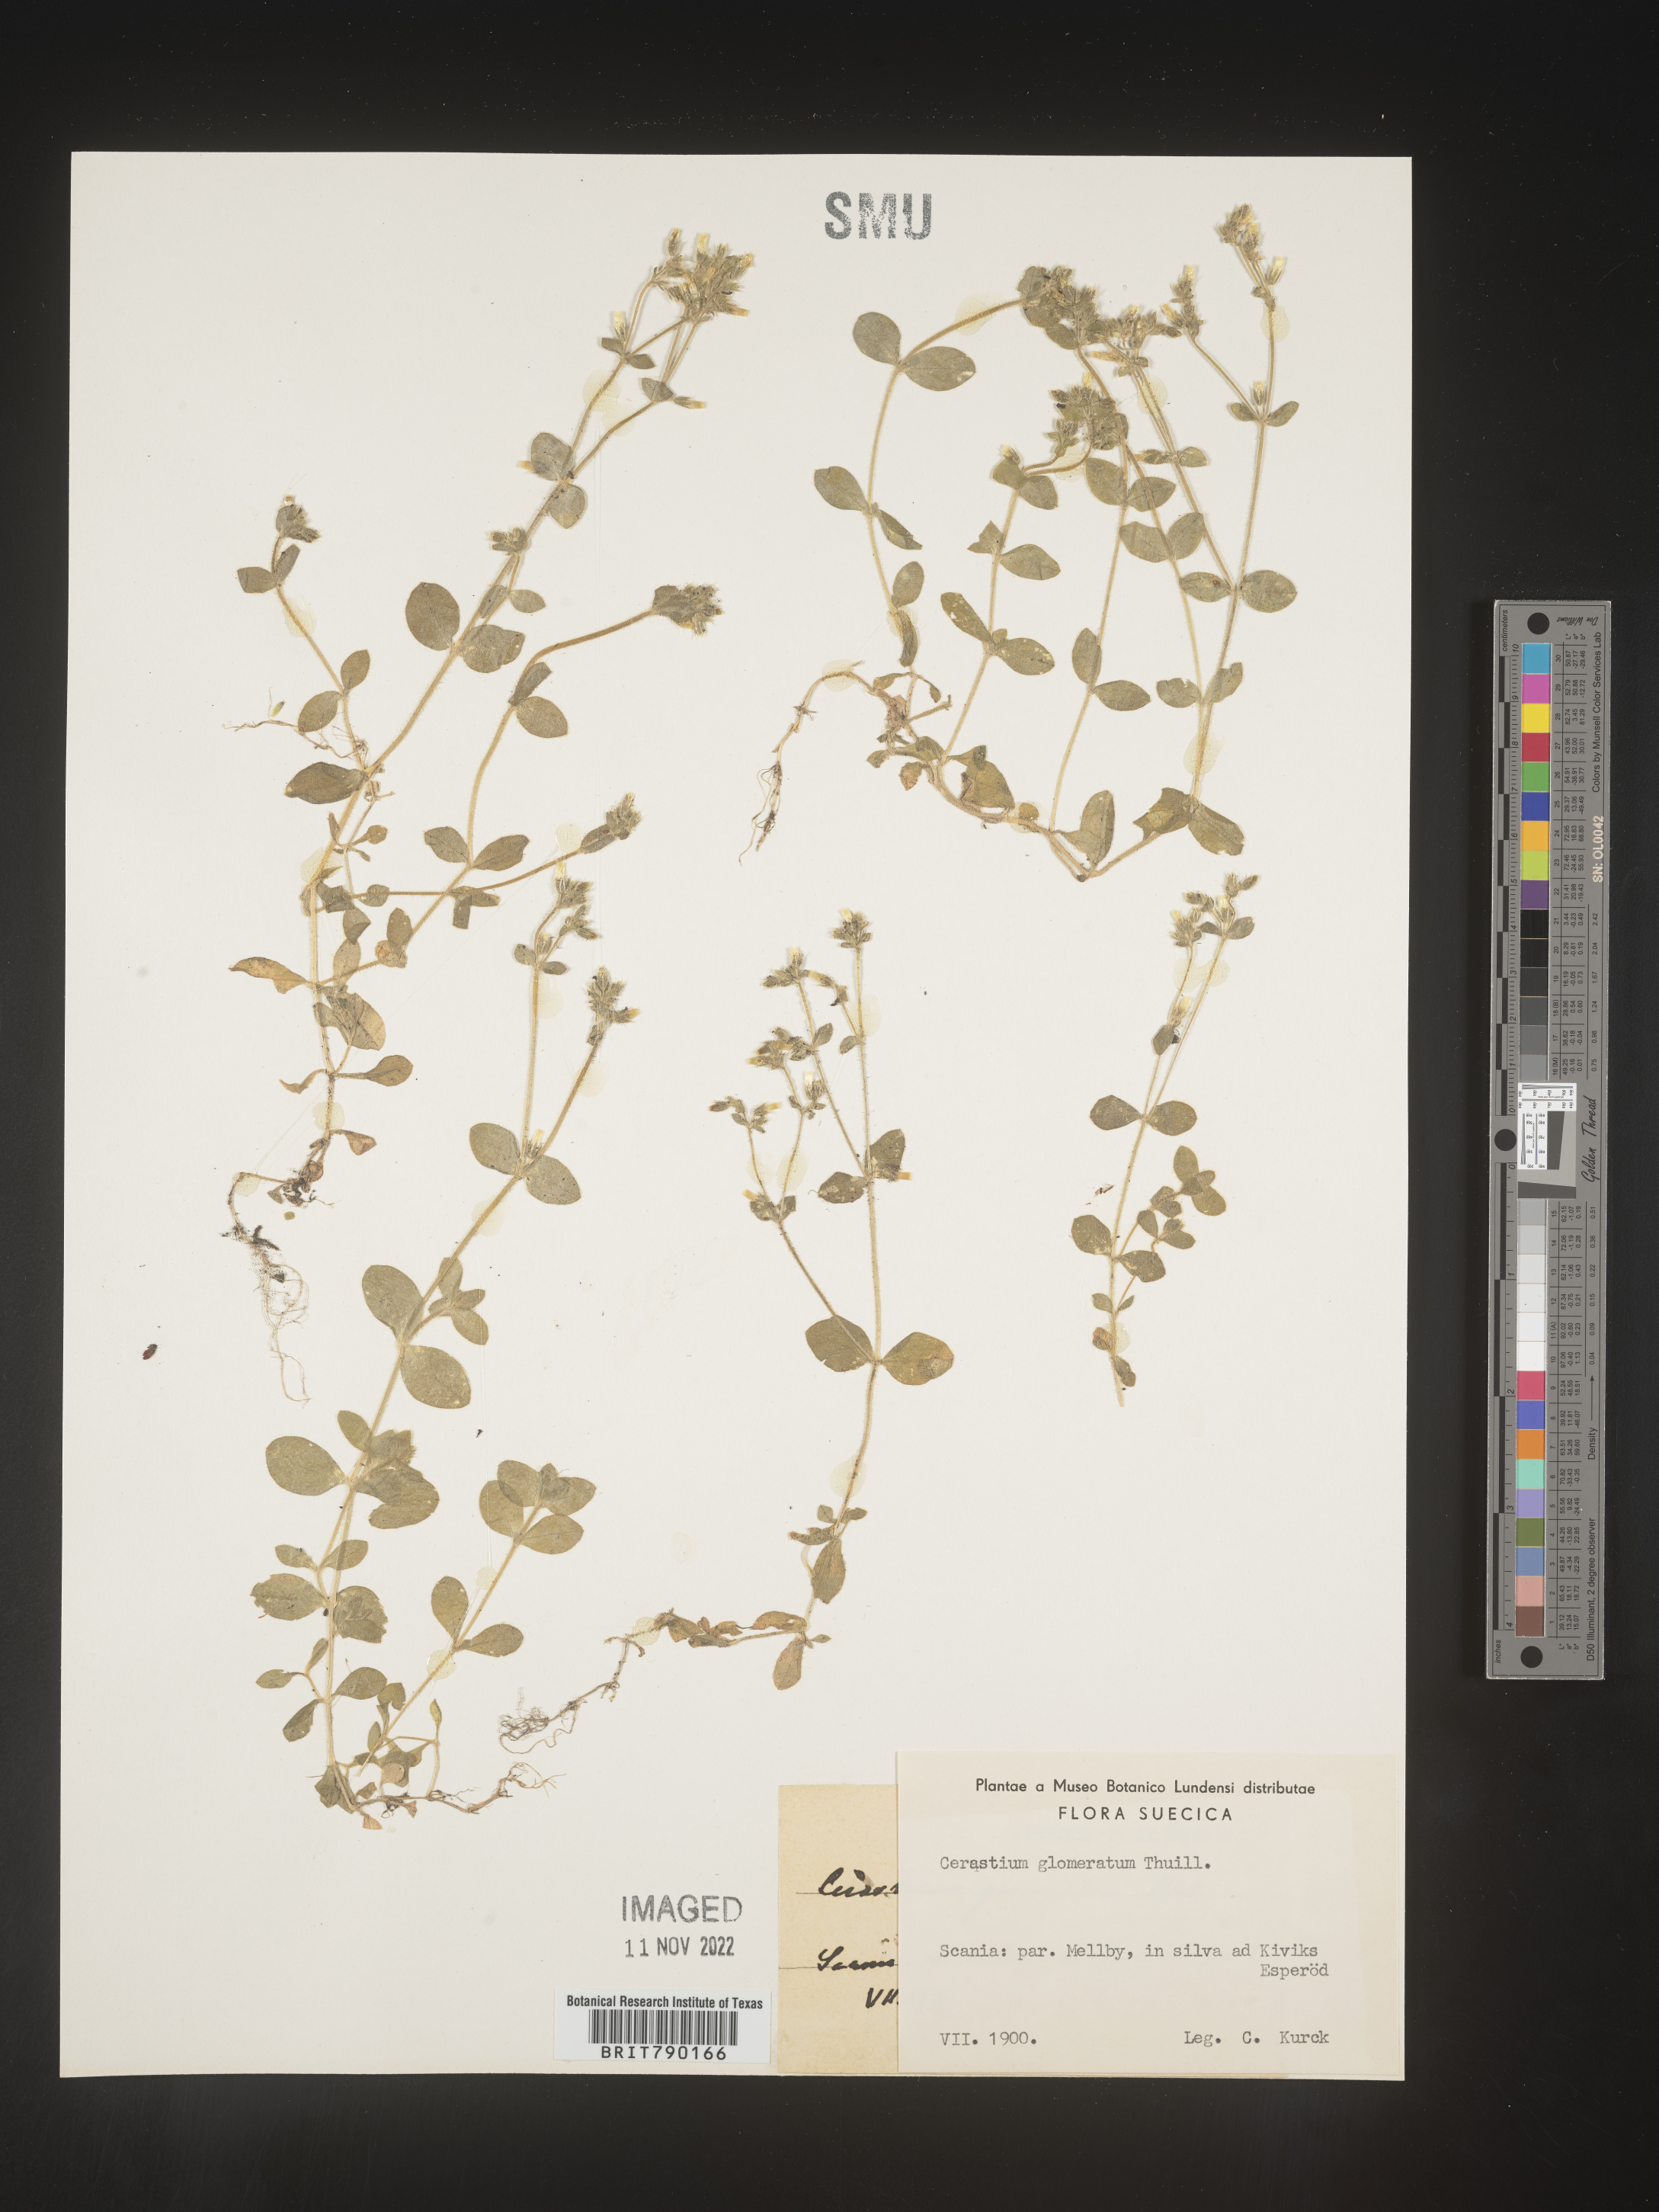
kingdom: Plantae
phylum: Tracheophyta
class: Magnoliopsida
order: Caryophyllales
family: Caryophyllaceae
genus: Cerastium
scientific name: Cerastium
